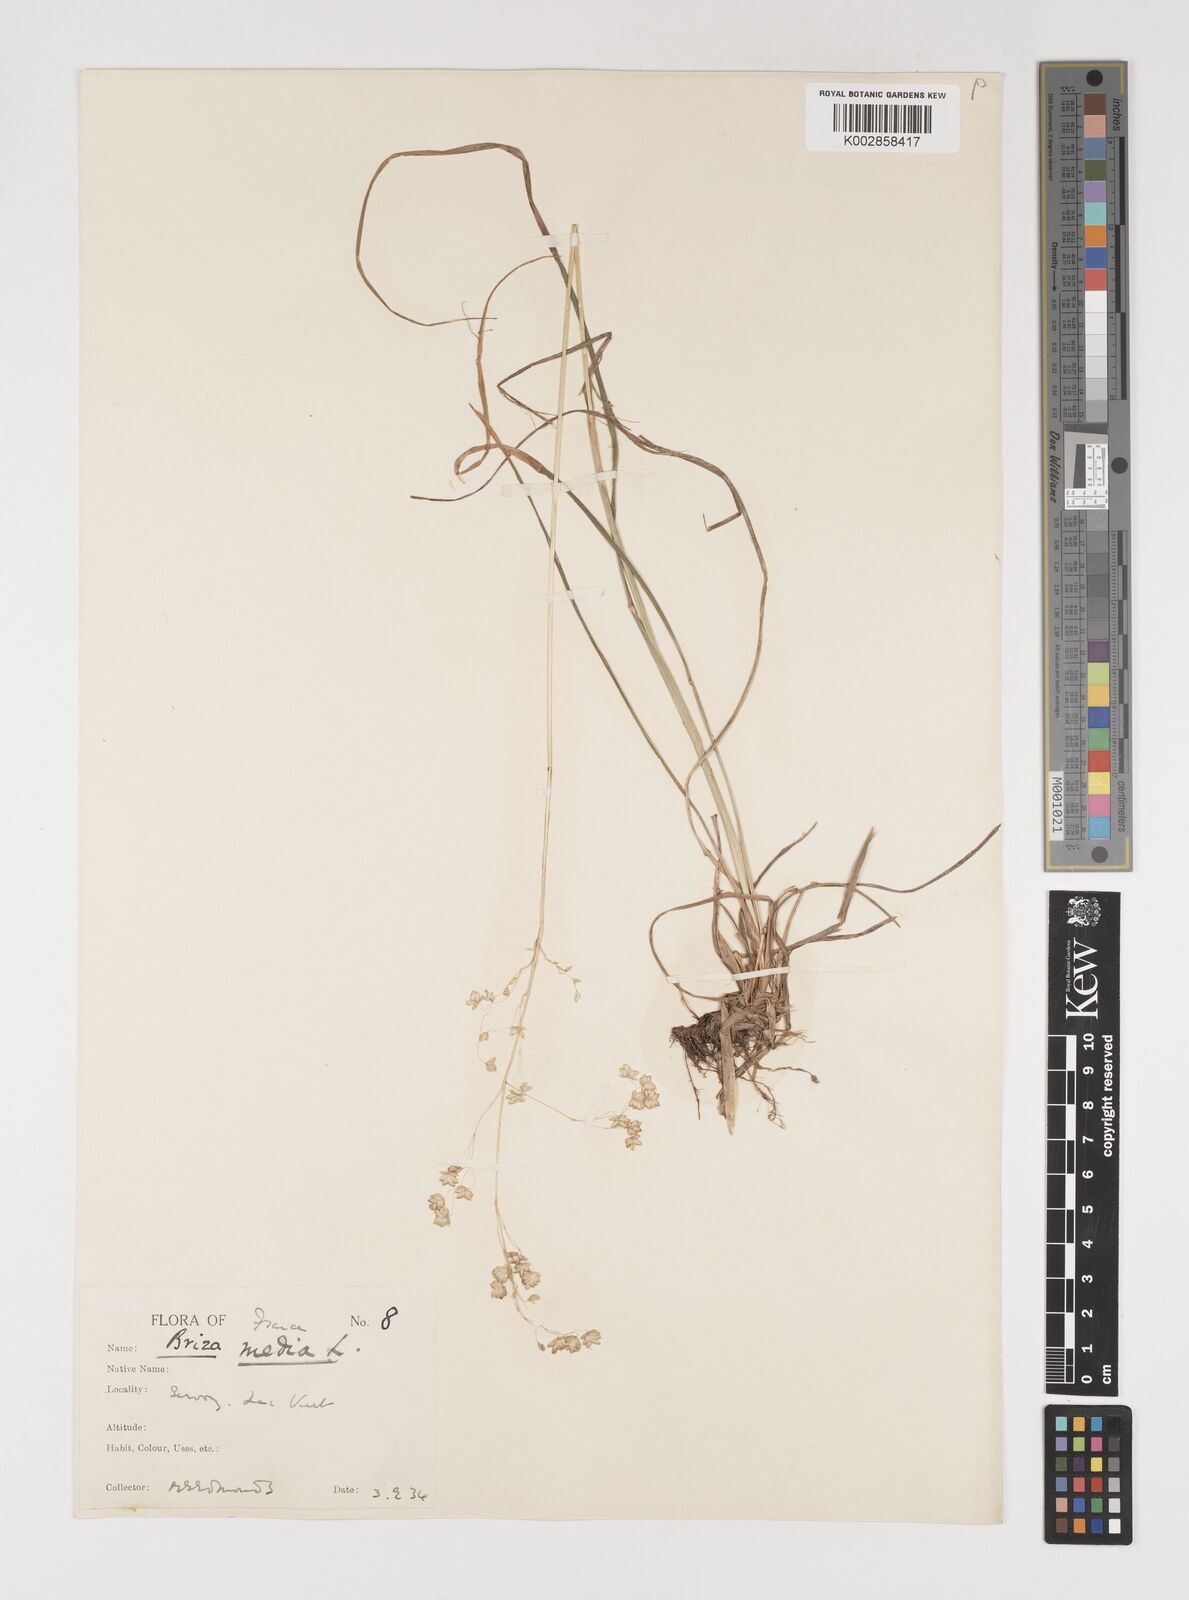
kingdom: Plantae
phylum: Tracheophyta
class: Liliopsida
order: Poales
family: Poaceae
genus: Briza
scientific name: Briza media
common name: Quaking grass
